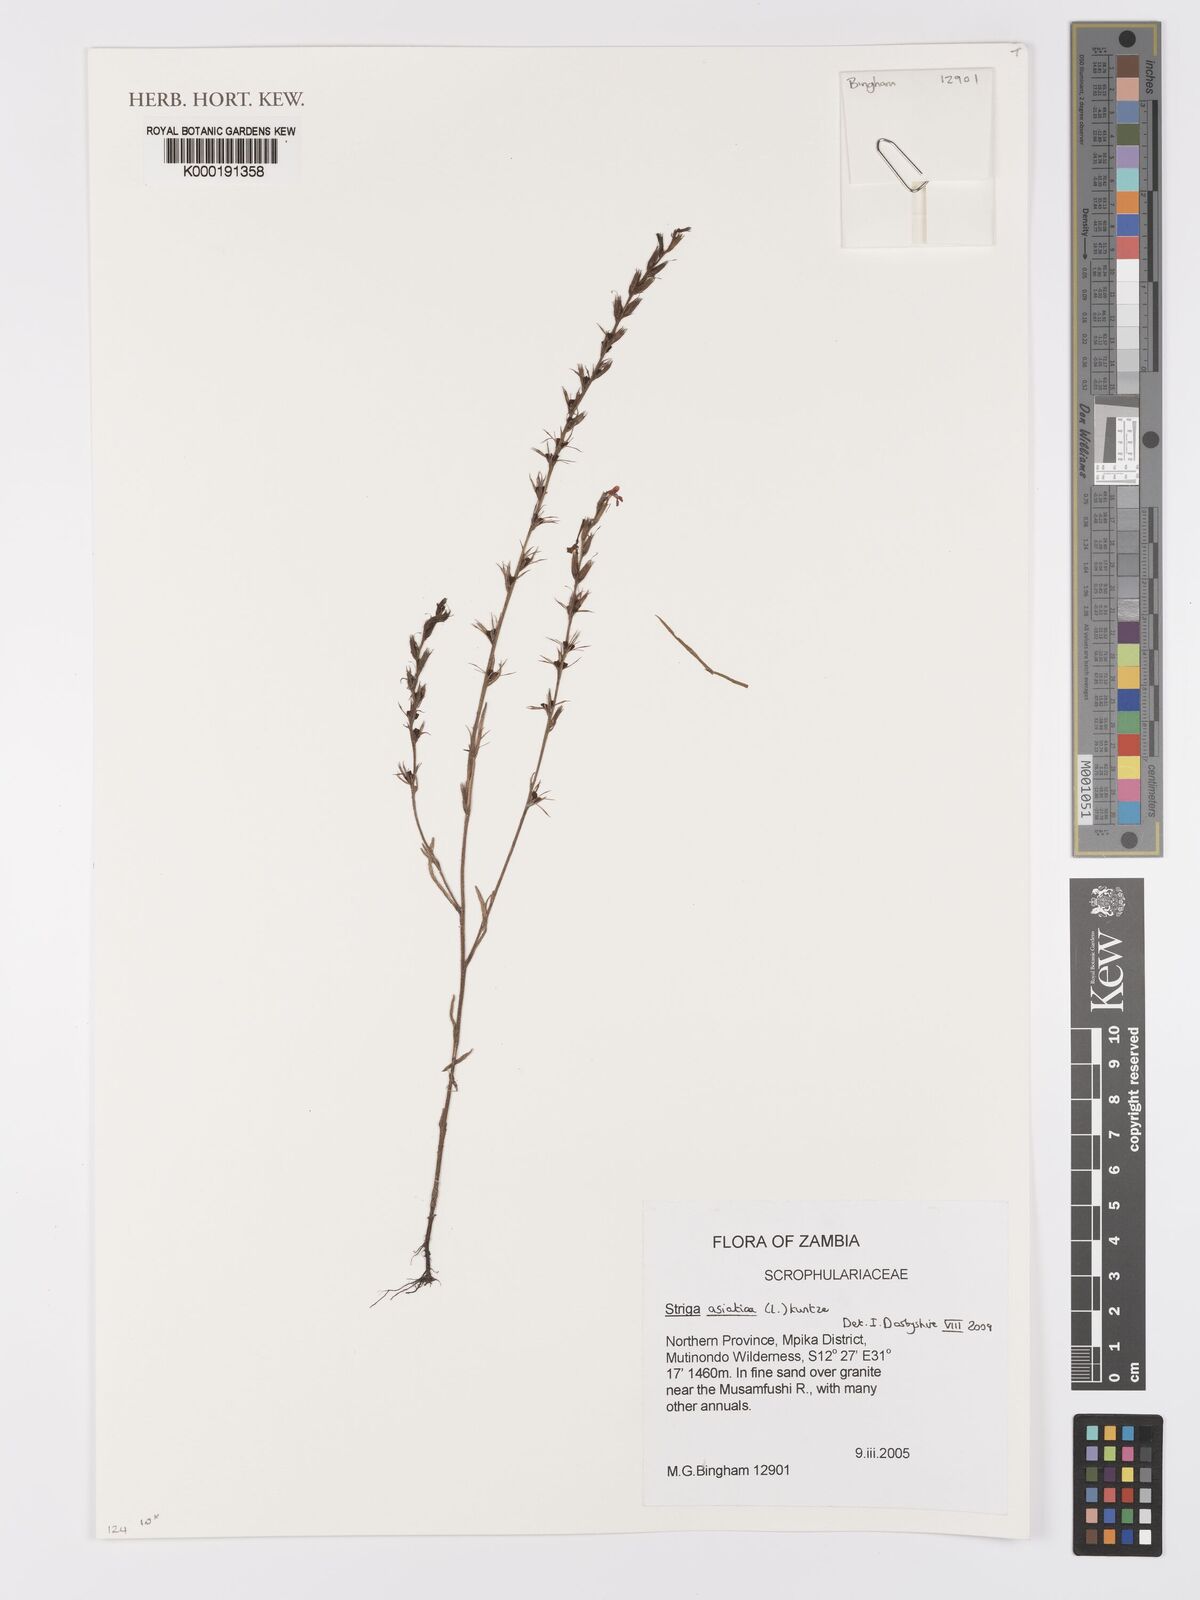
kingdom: Plantae
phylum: Tracheophyta
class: Magnoliopsida
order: Lamiales
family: Orobanchaceae
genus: Striga
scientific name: Striga asiatica
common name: Asiatic witchweed
